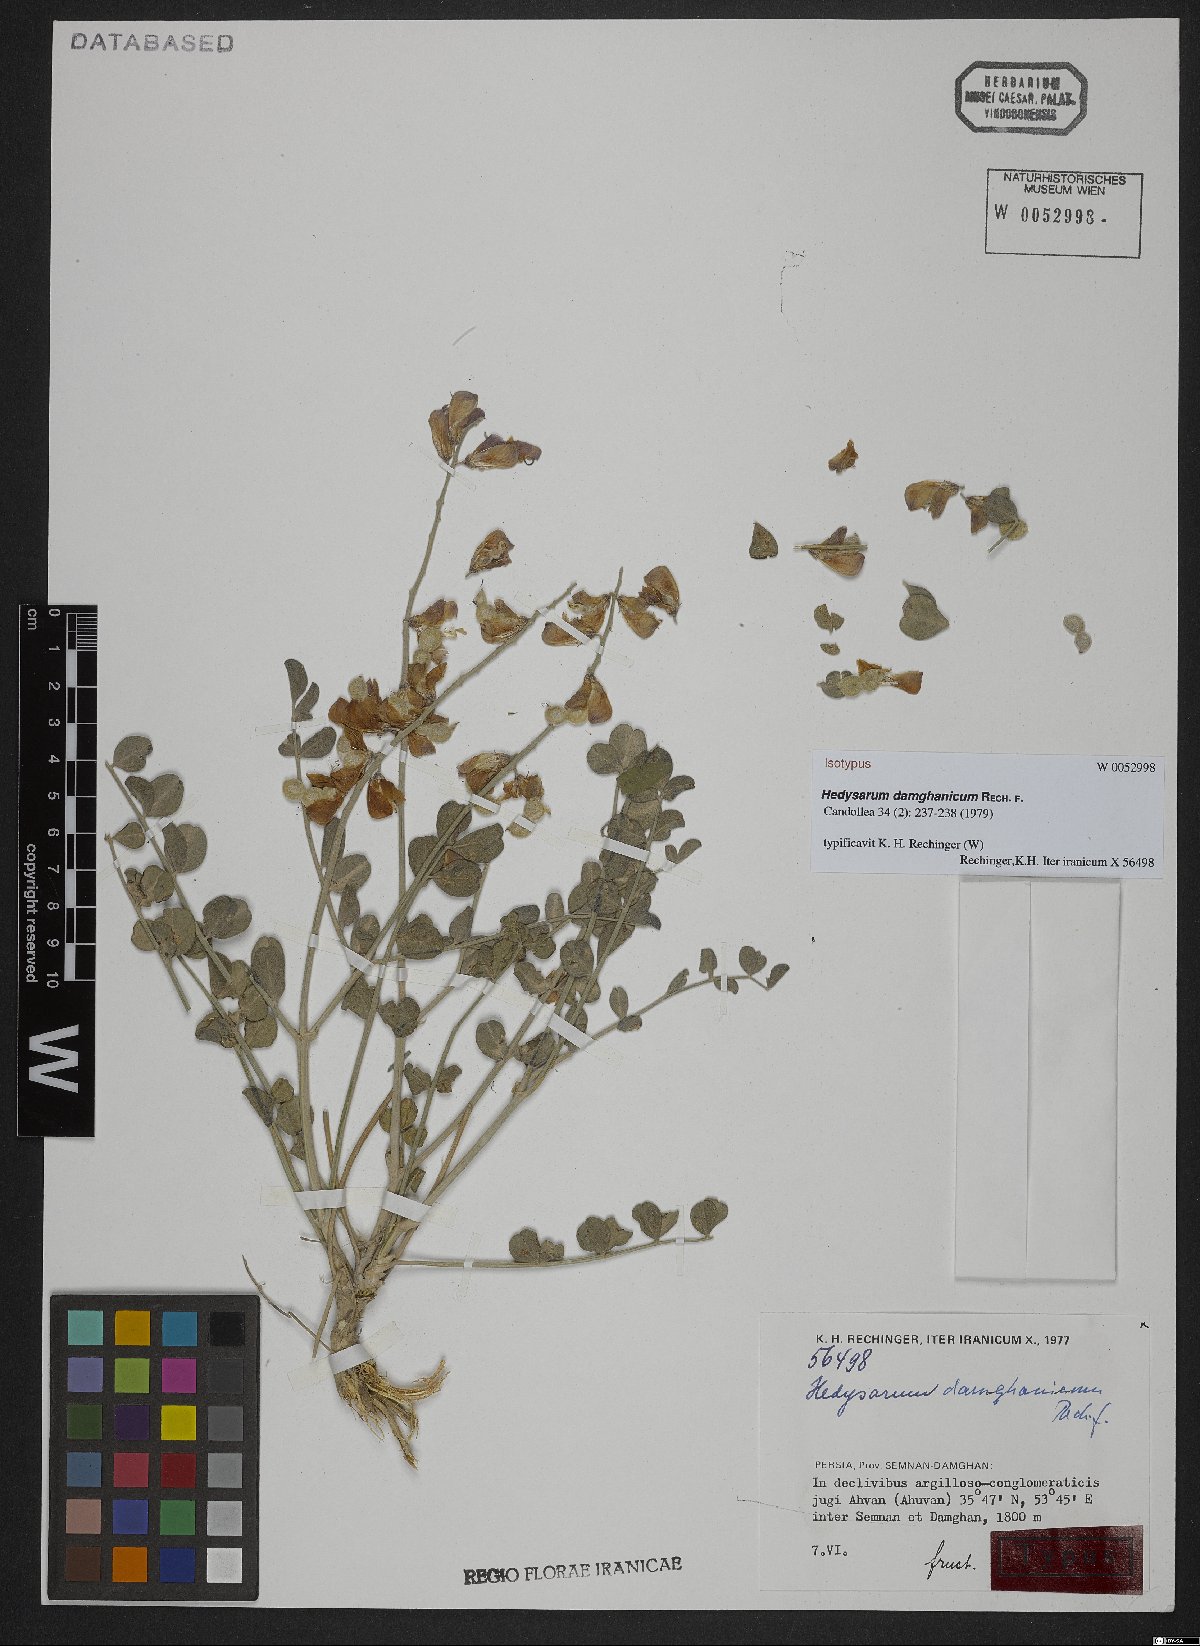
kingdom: Plantae
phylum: Tracheophyta
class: Magnoliopsida
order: Fabales
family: Fabaceae
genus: Hedysarum
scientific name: Hedysarum damghanicum
